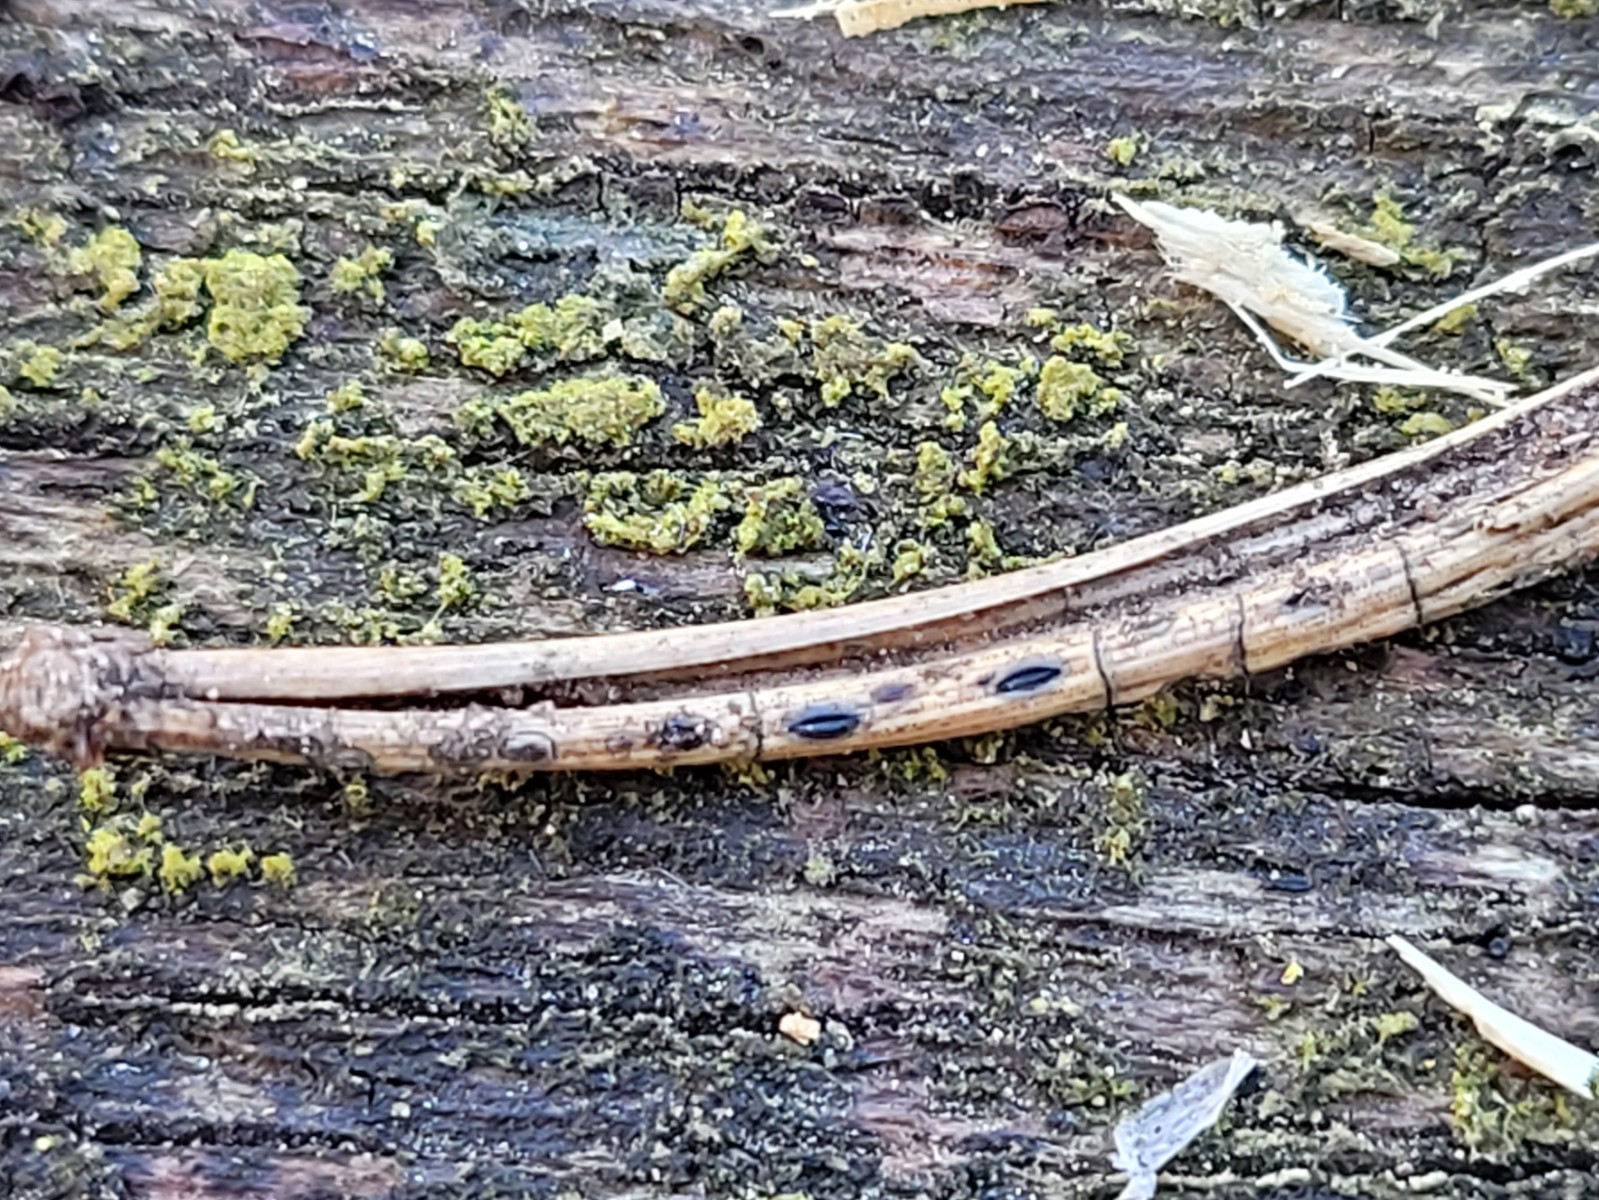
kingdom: Fungi
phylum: Ascomycota
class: Leotiomycetes
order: Rhytismatales
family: Rhytismataceae
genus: Lophodermium
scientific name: Lophodermium pinastri
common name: fyrre-fureplet
